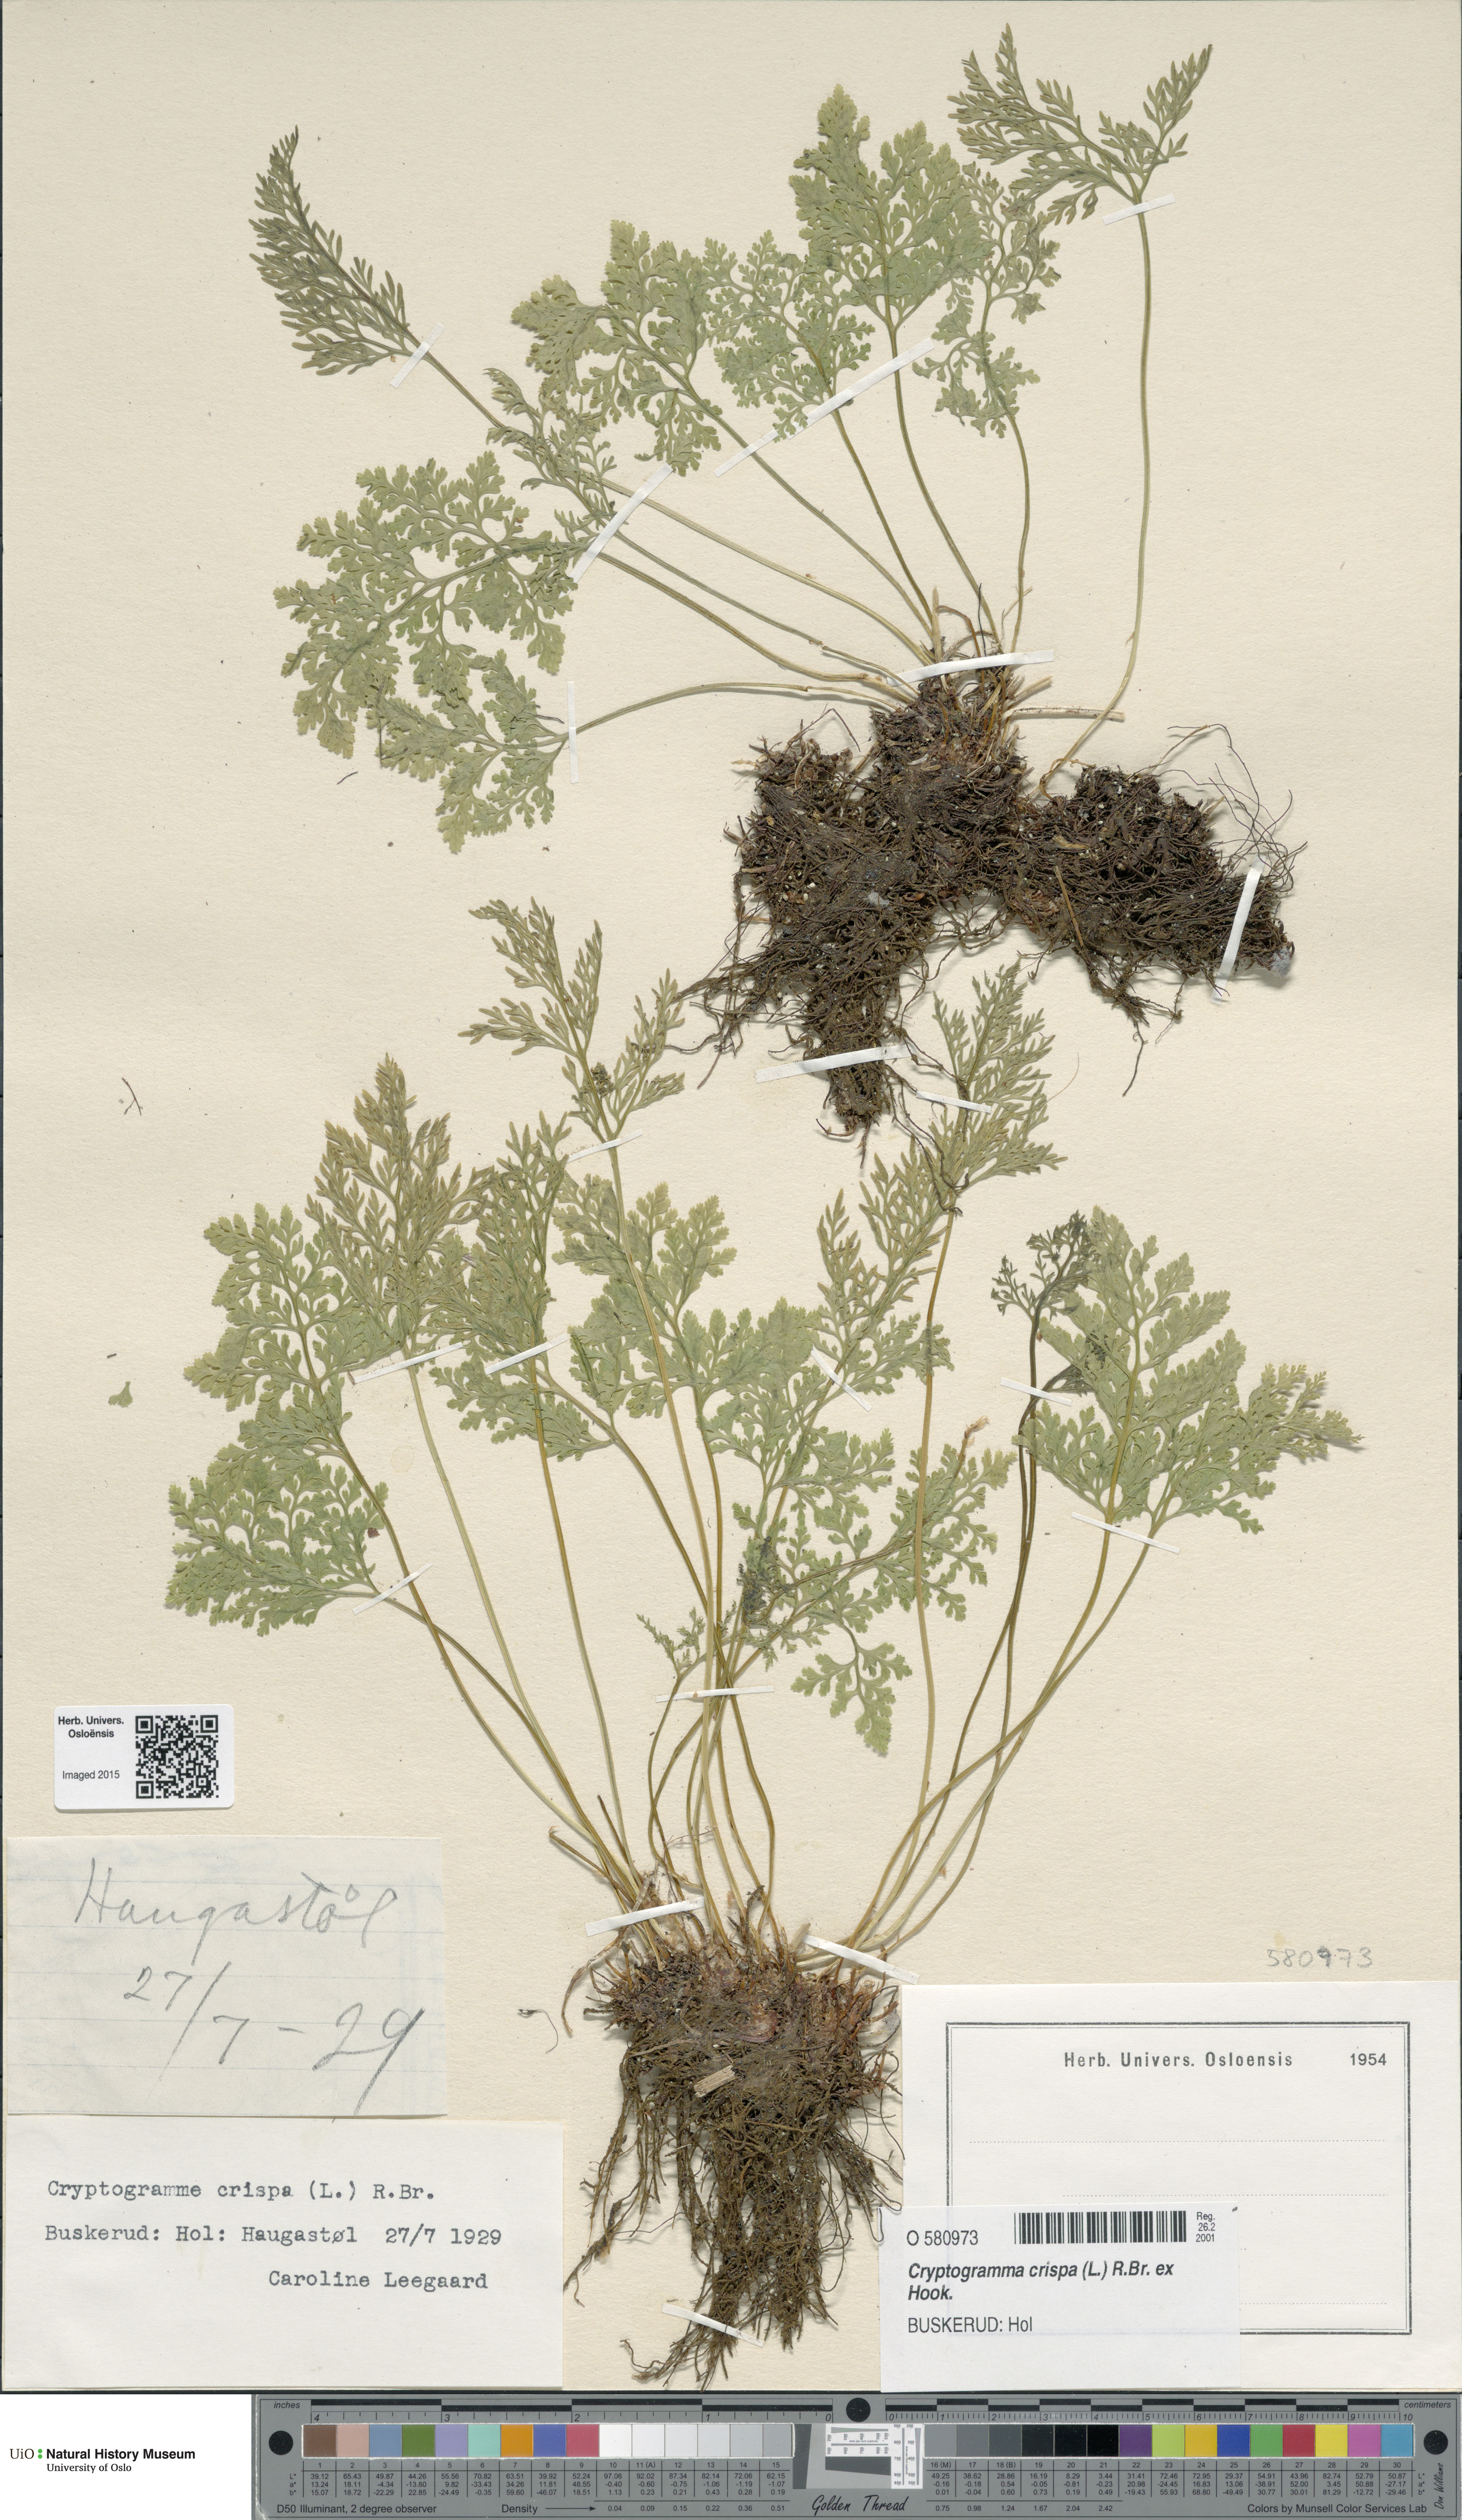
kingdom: Plantae
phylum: Tracheophyta
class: Polypodiopsida
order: Polypodiales
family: Pteridaceae
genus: Cryptogramma
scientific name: Cryptogramma crispa
